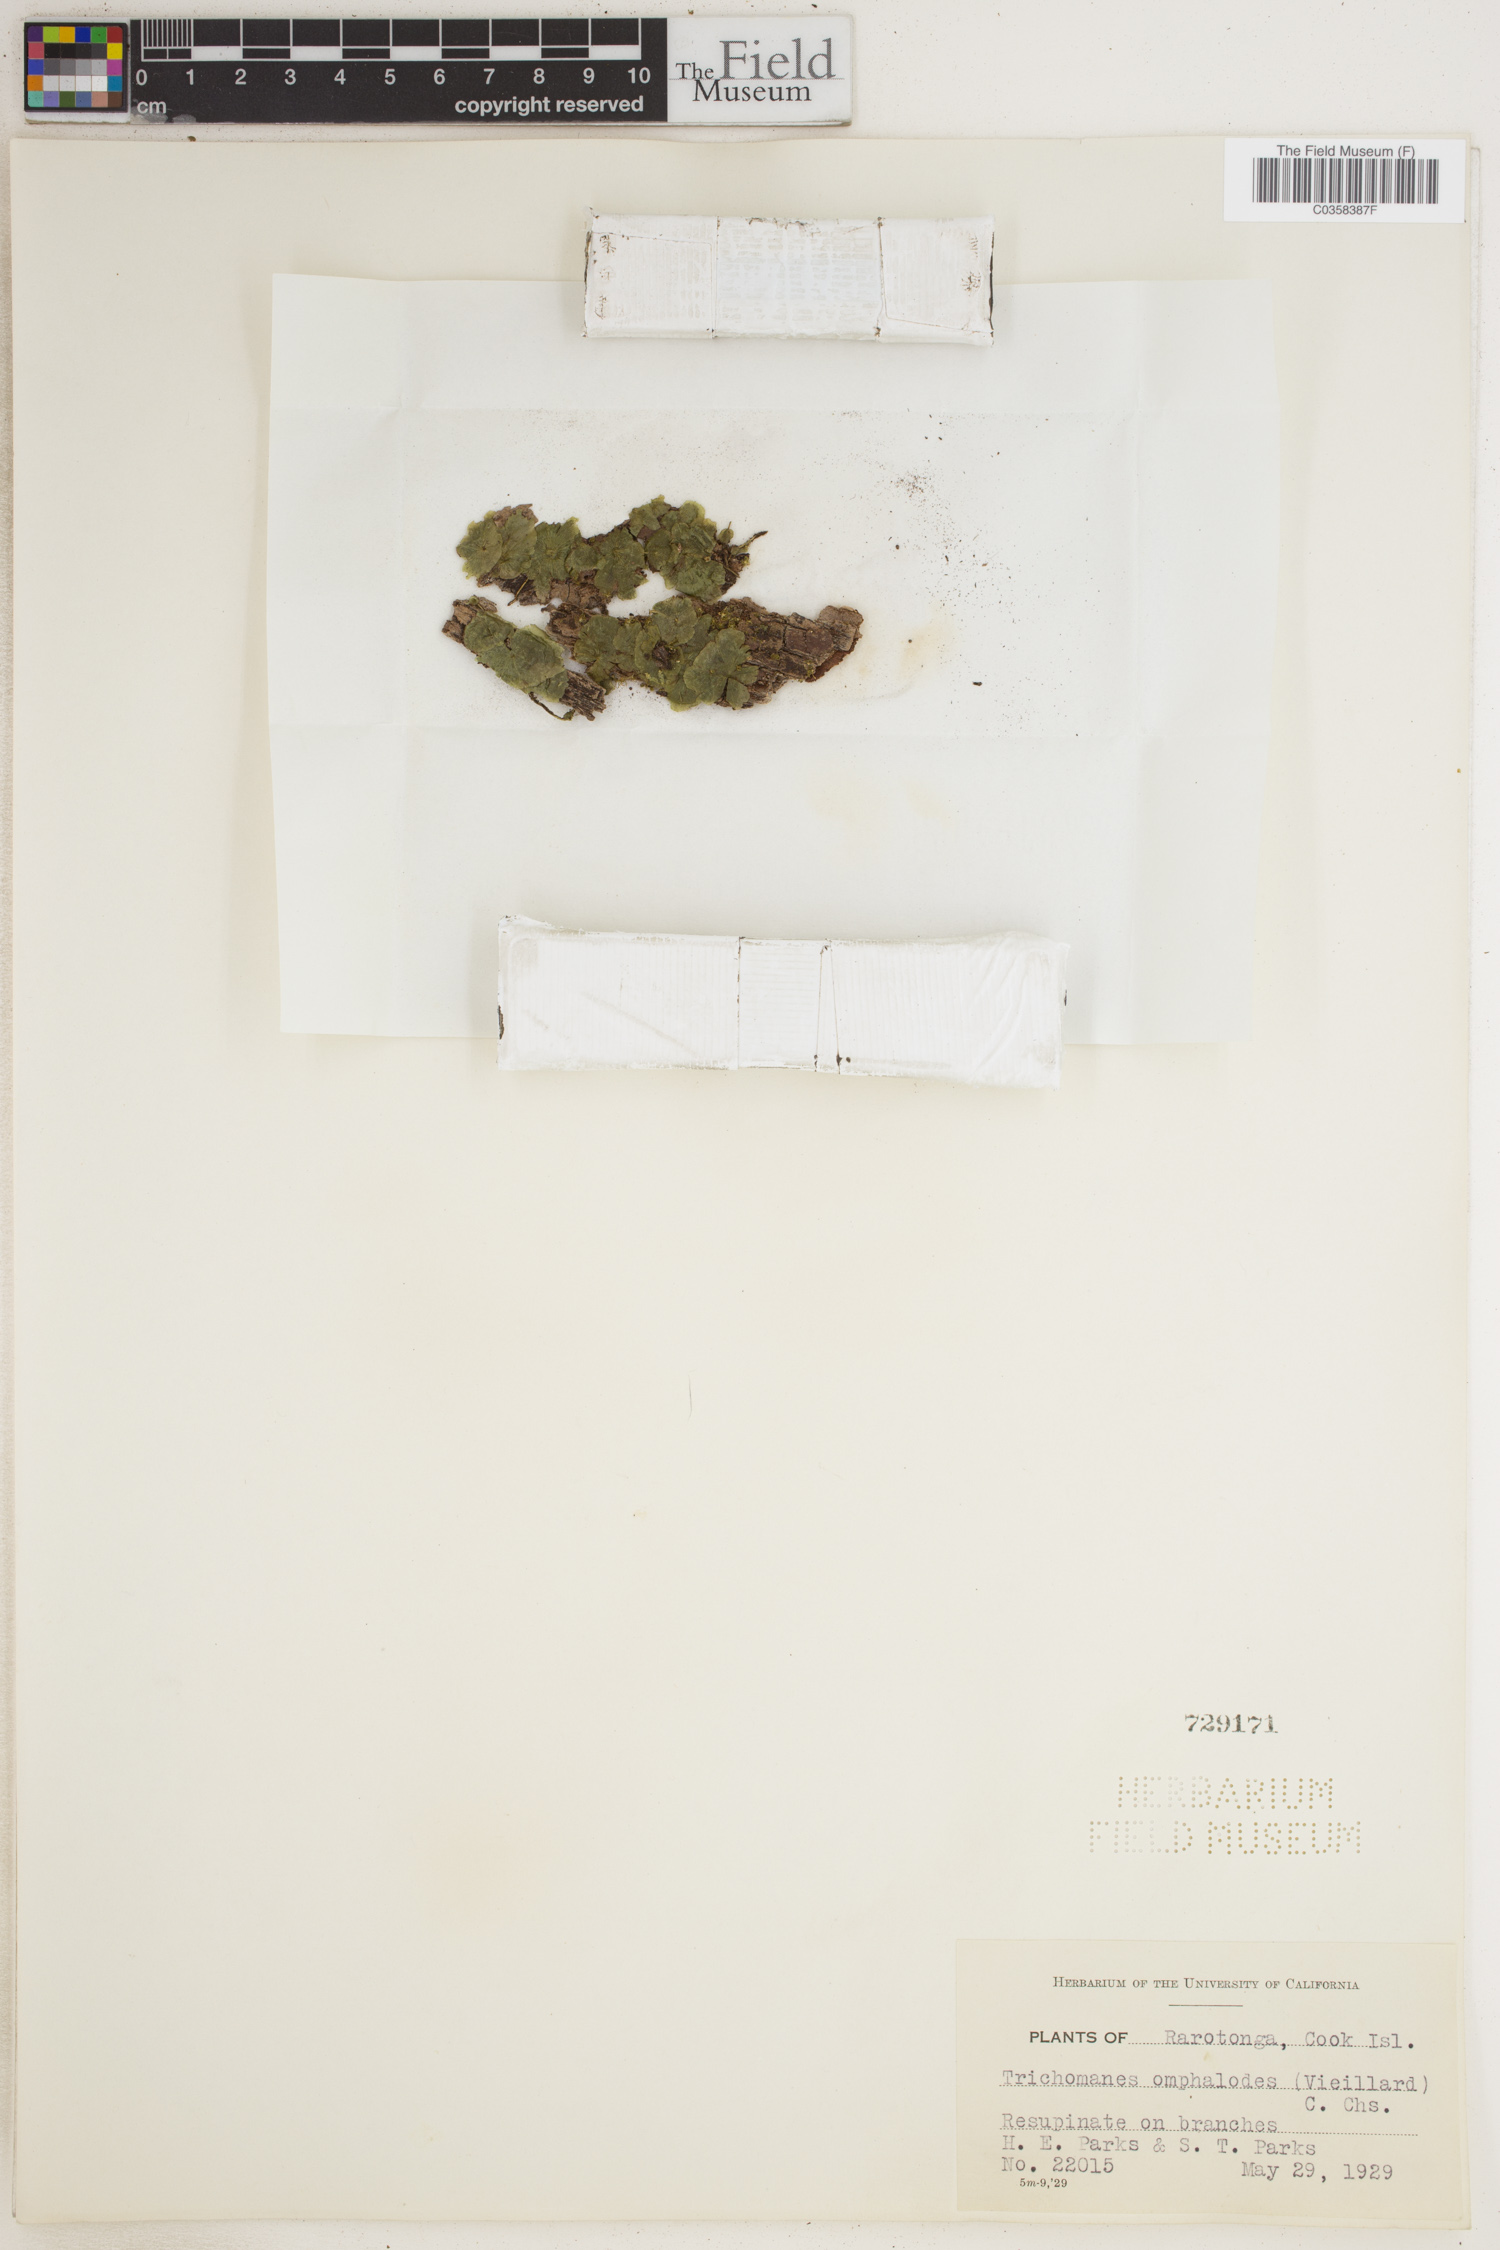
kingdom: Plantae
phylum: Tracheophyta
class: Polypodiopsida
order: Hymenophyllales
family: Hymenophyllaceae
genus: Didymoglossum
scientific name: Didymoglossum tahitense
